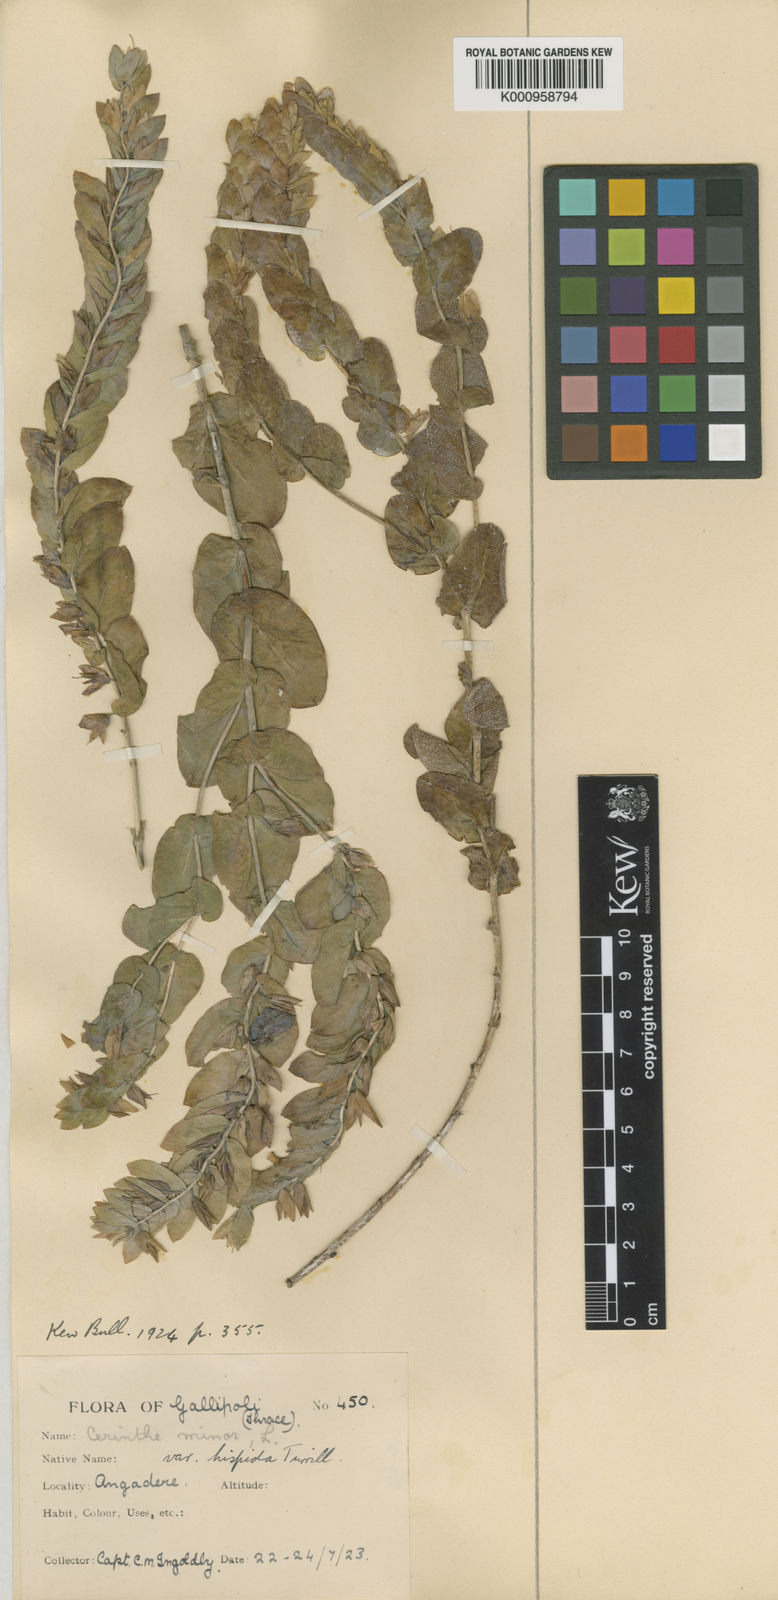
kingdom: Plantae
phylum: Tracheophyta
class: Magnoliopsida
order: Boraginales
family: Boraginaceae
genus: Cerinthe
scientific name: Cerinthe minor
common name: Lesser honeywort
